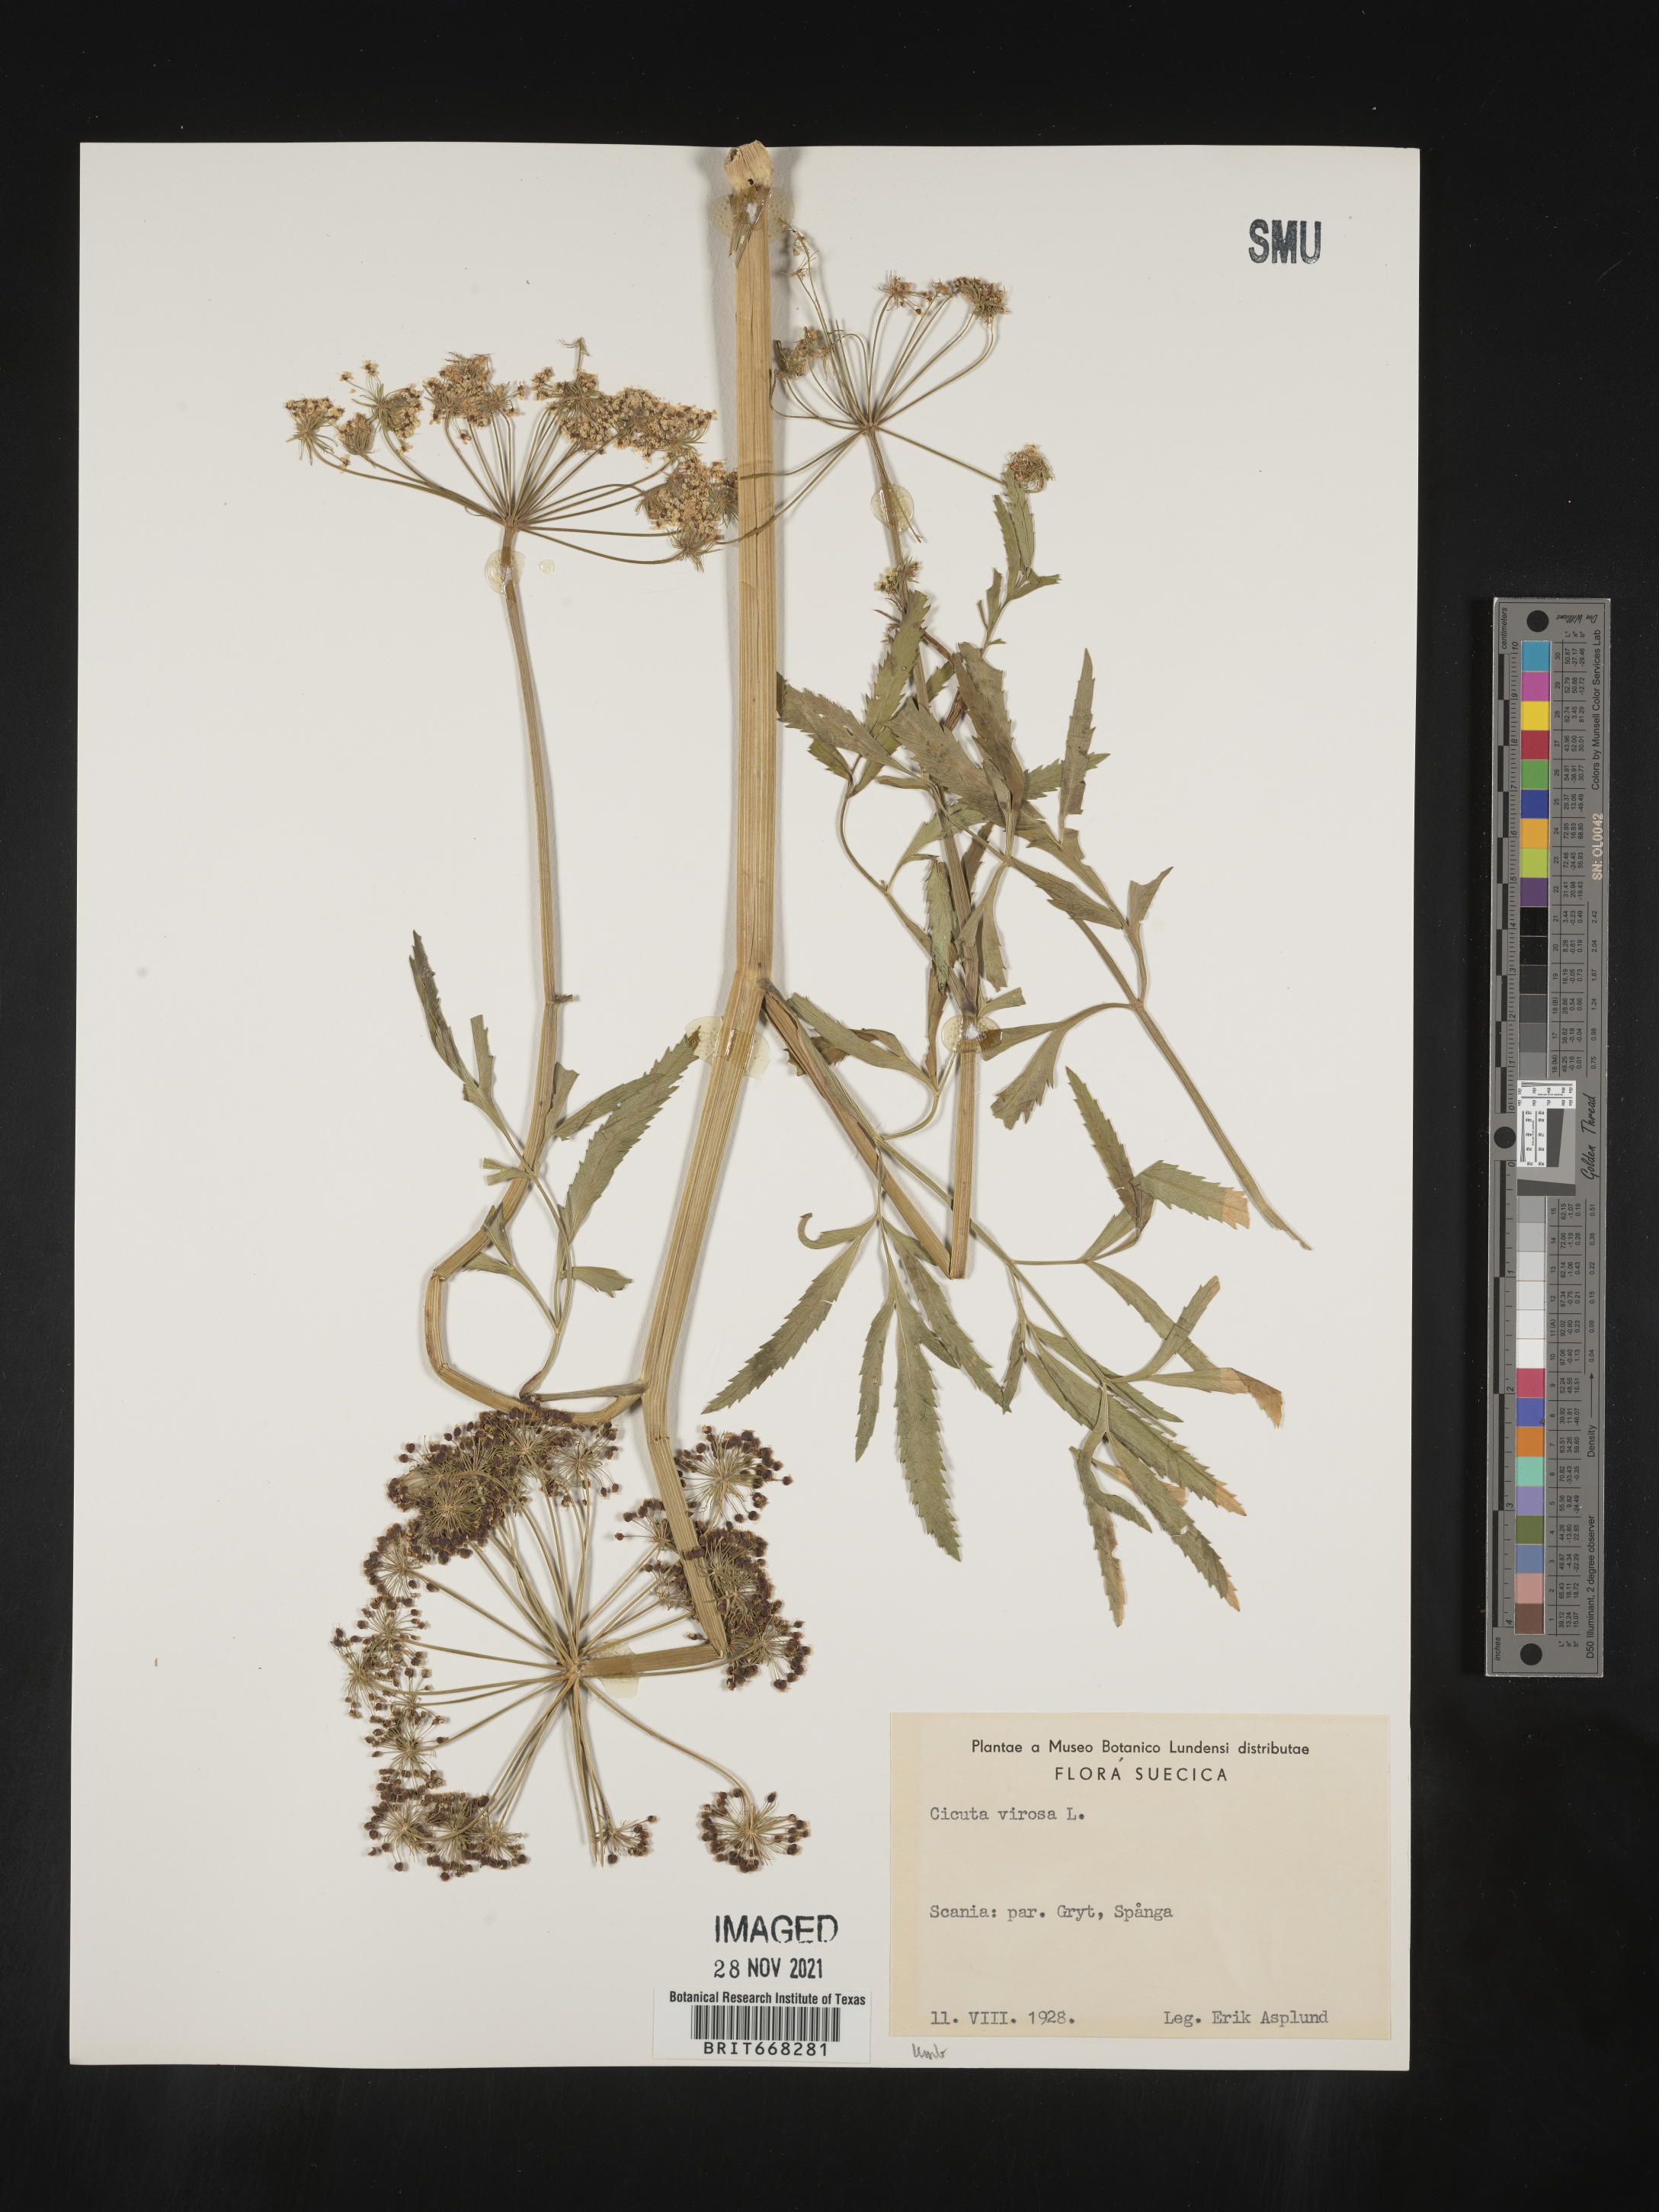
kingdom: Plantae
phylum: Tracheophyta
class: Magnoliopsida
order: Apiales
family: Apiaceae
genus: Cicuta
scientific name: Cicuta
